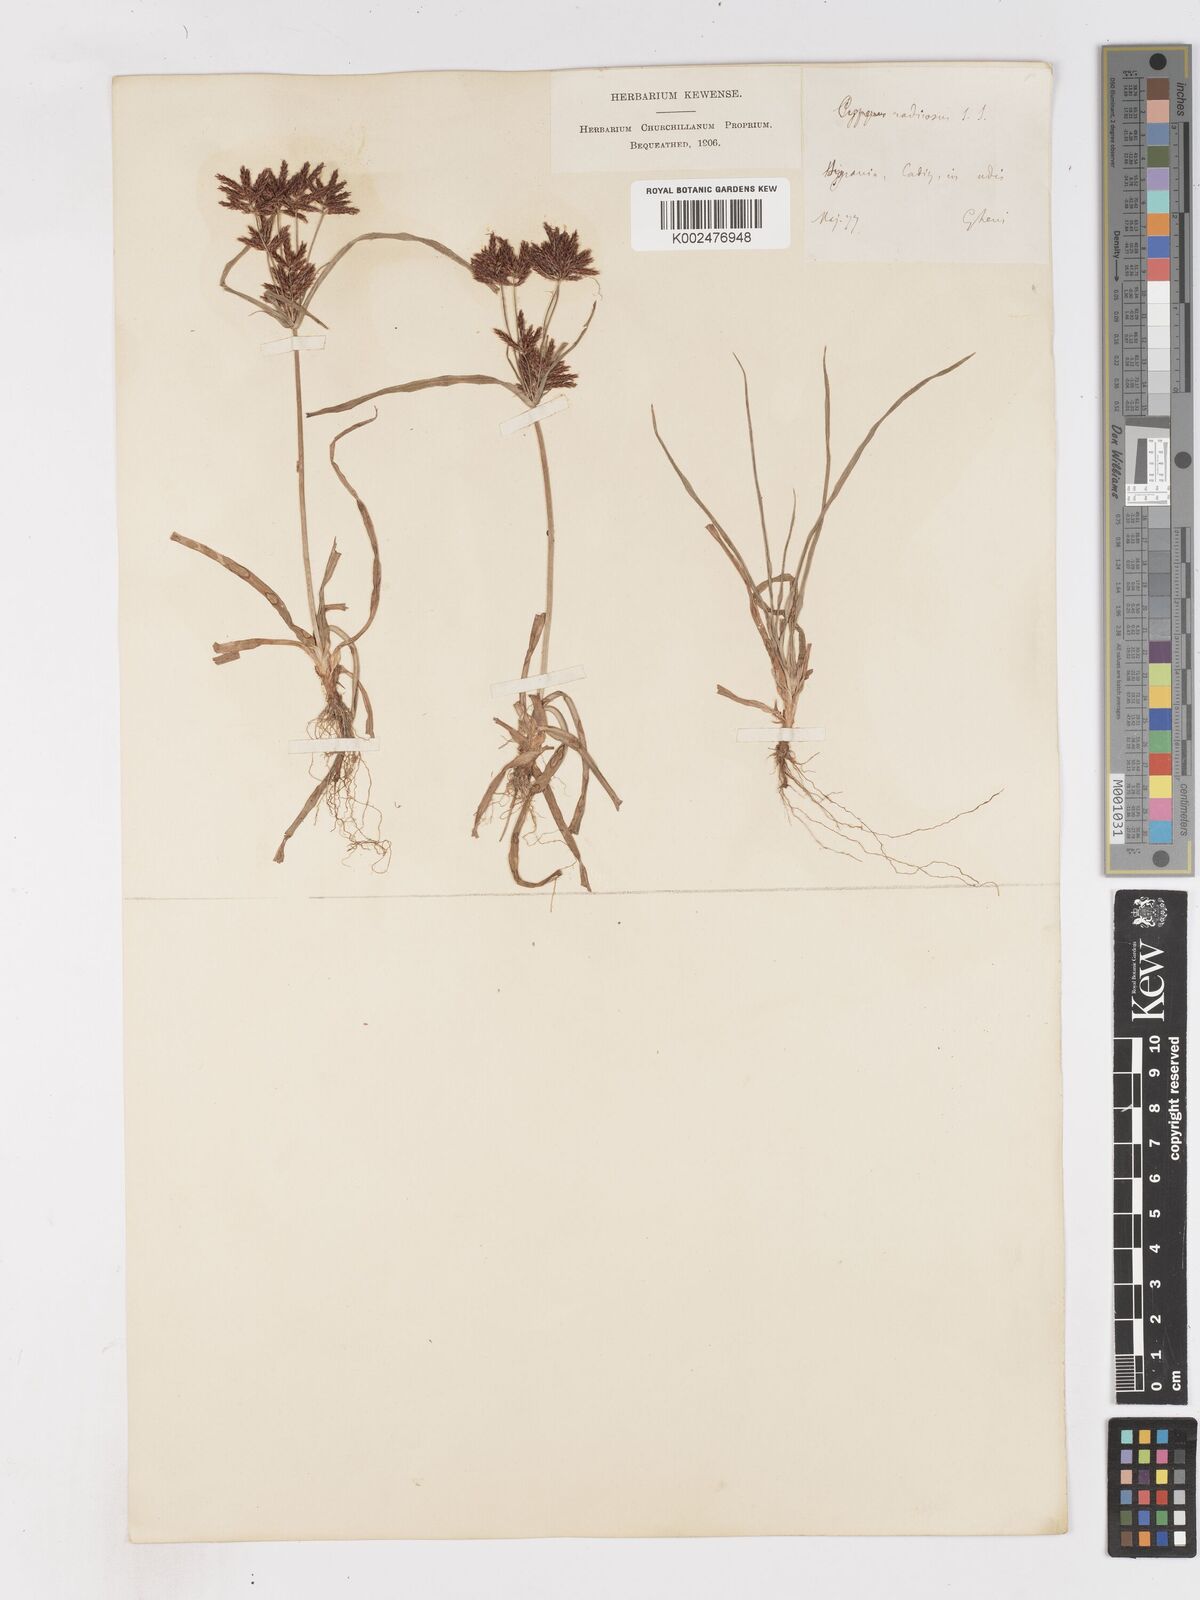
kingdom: Plantae
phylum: Tracheophyta
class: Liliopsida
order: Poales
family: Cyperaceae
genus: Cyperus
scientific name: Cyperus rotundus
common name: Nutgrass
